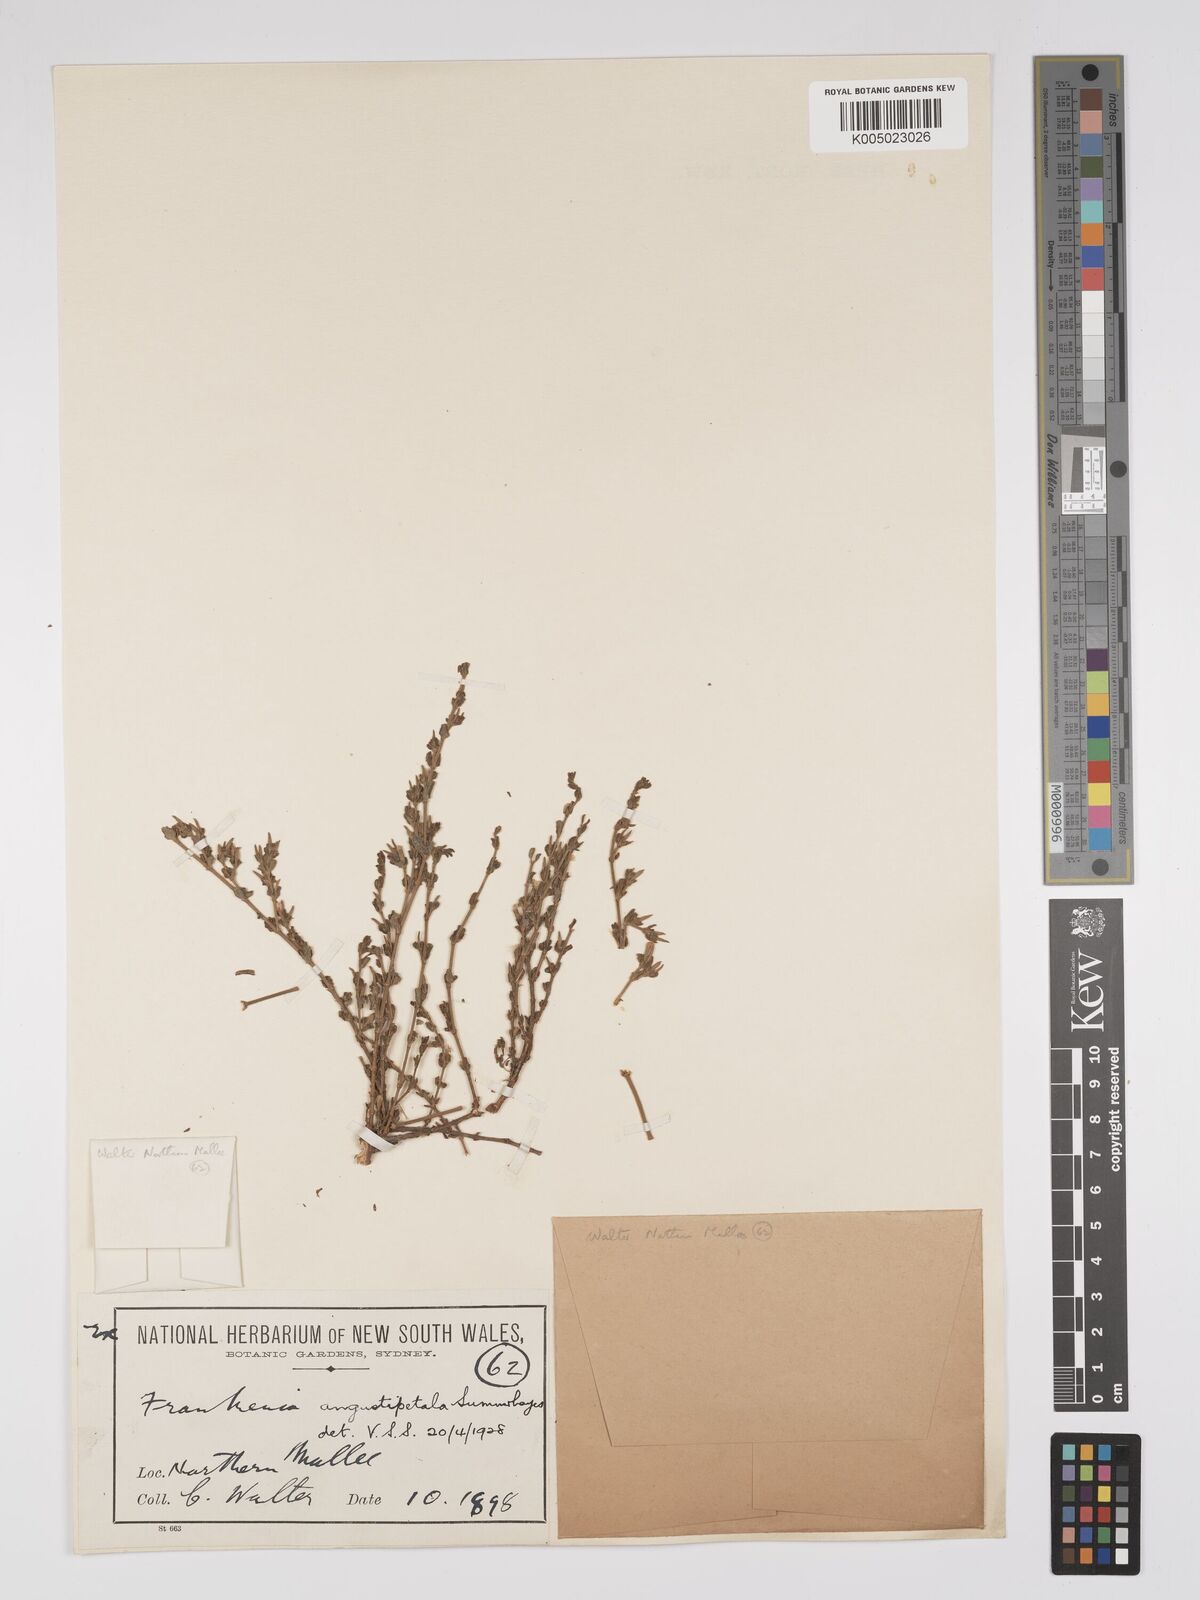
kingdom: Plantae
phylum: Tracheophyta
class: Magnoliopsida
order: Caryophyllales
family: Frankeniaceae
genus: Frankenia
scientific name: Frankenia angustipetala
